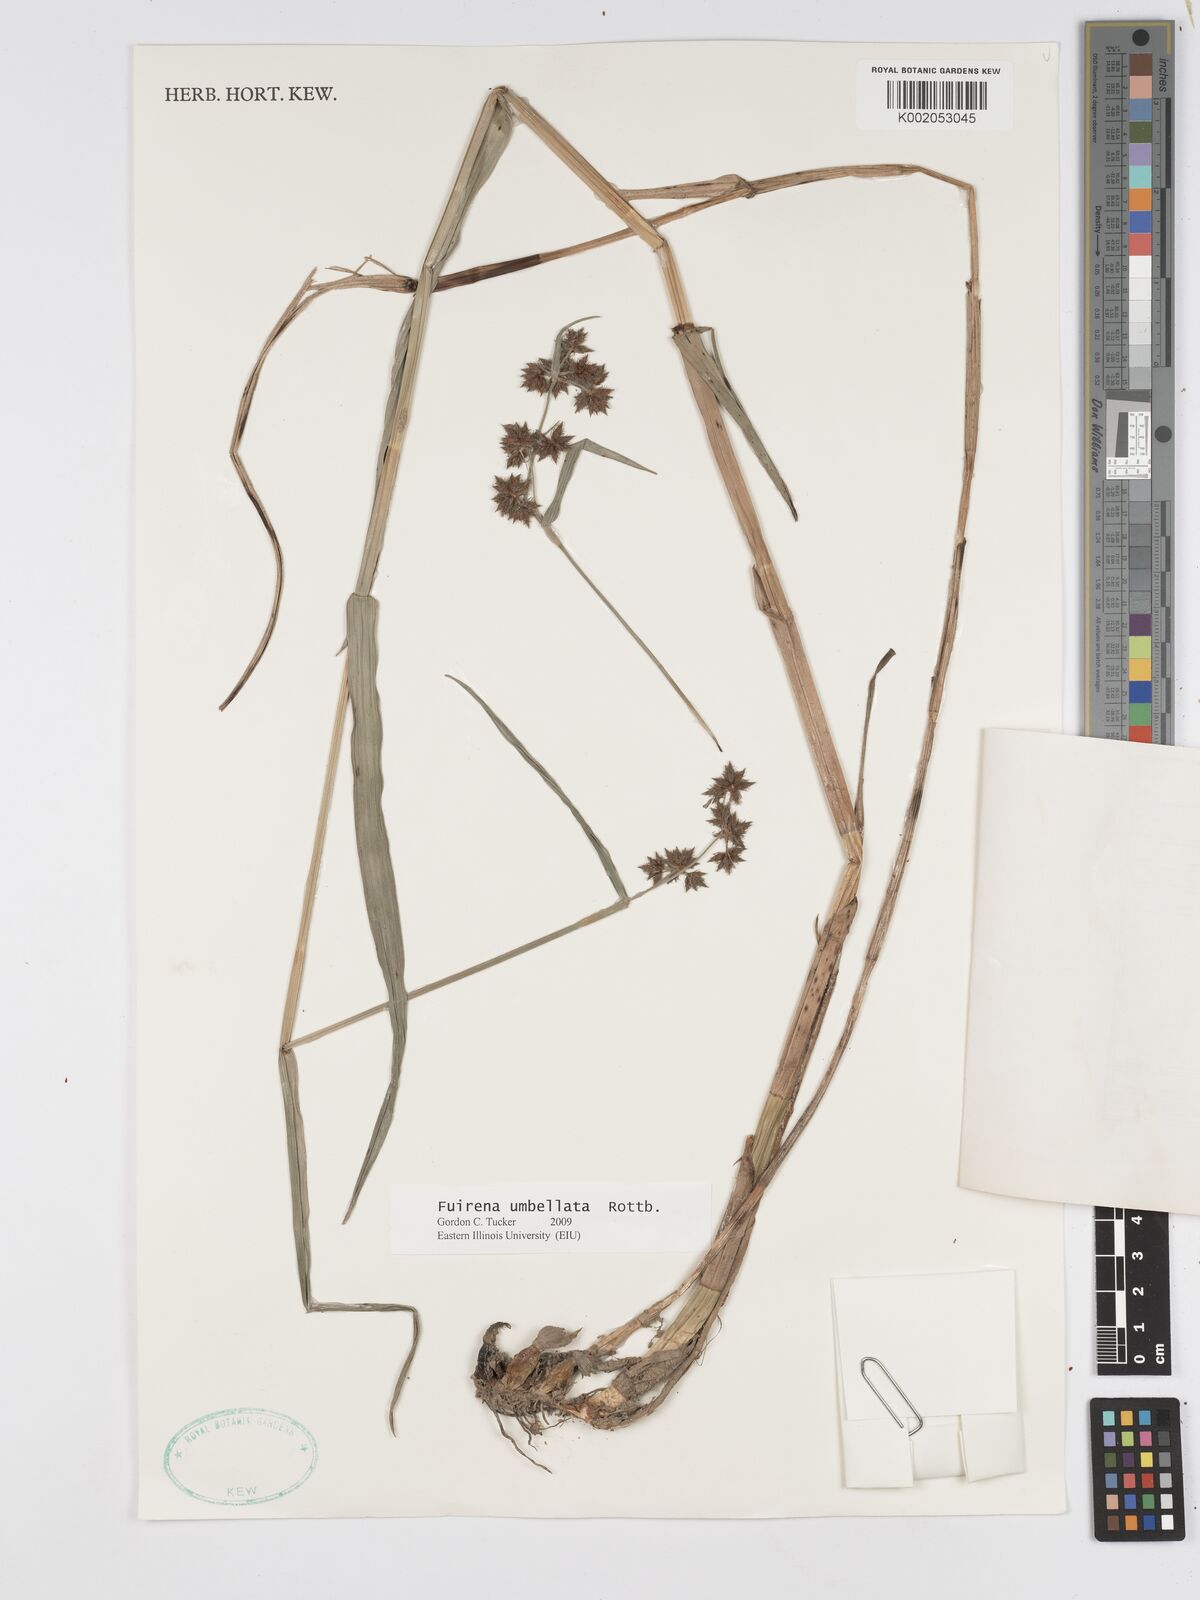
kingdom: Plantae
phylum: Tracheophyta
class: Liliopsida
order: Poales
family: Cyperaceae
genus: Fuirena
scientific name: Fuirena umbellata
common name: Yefen
